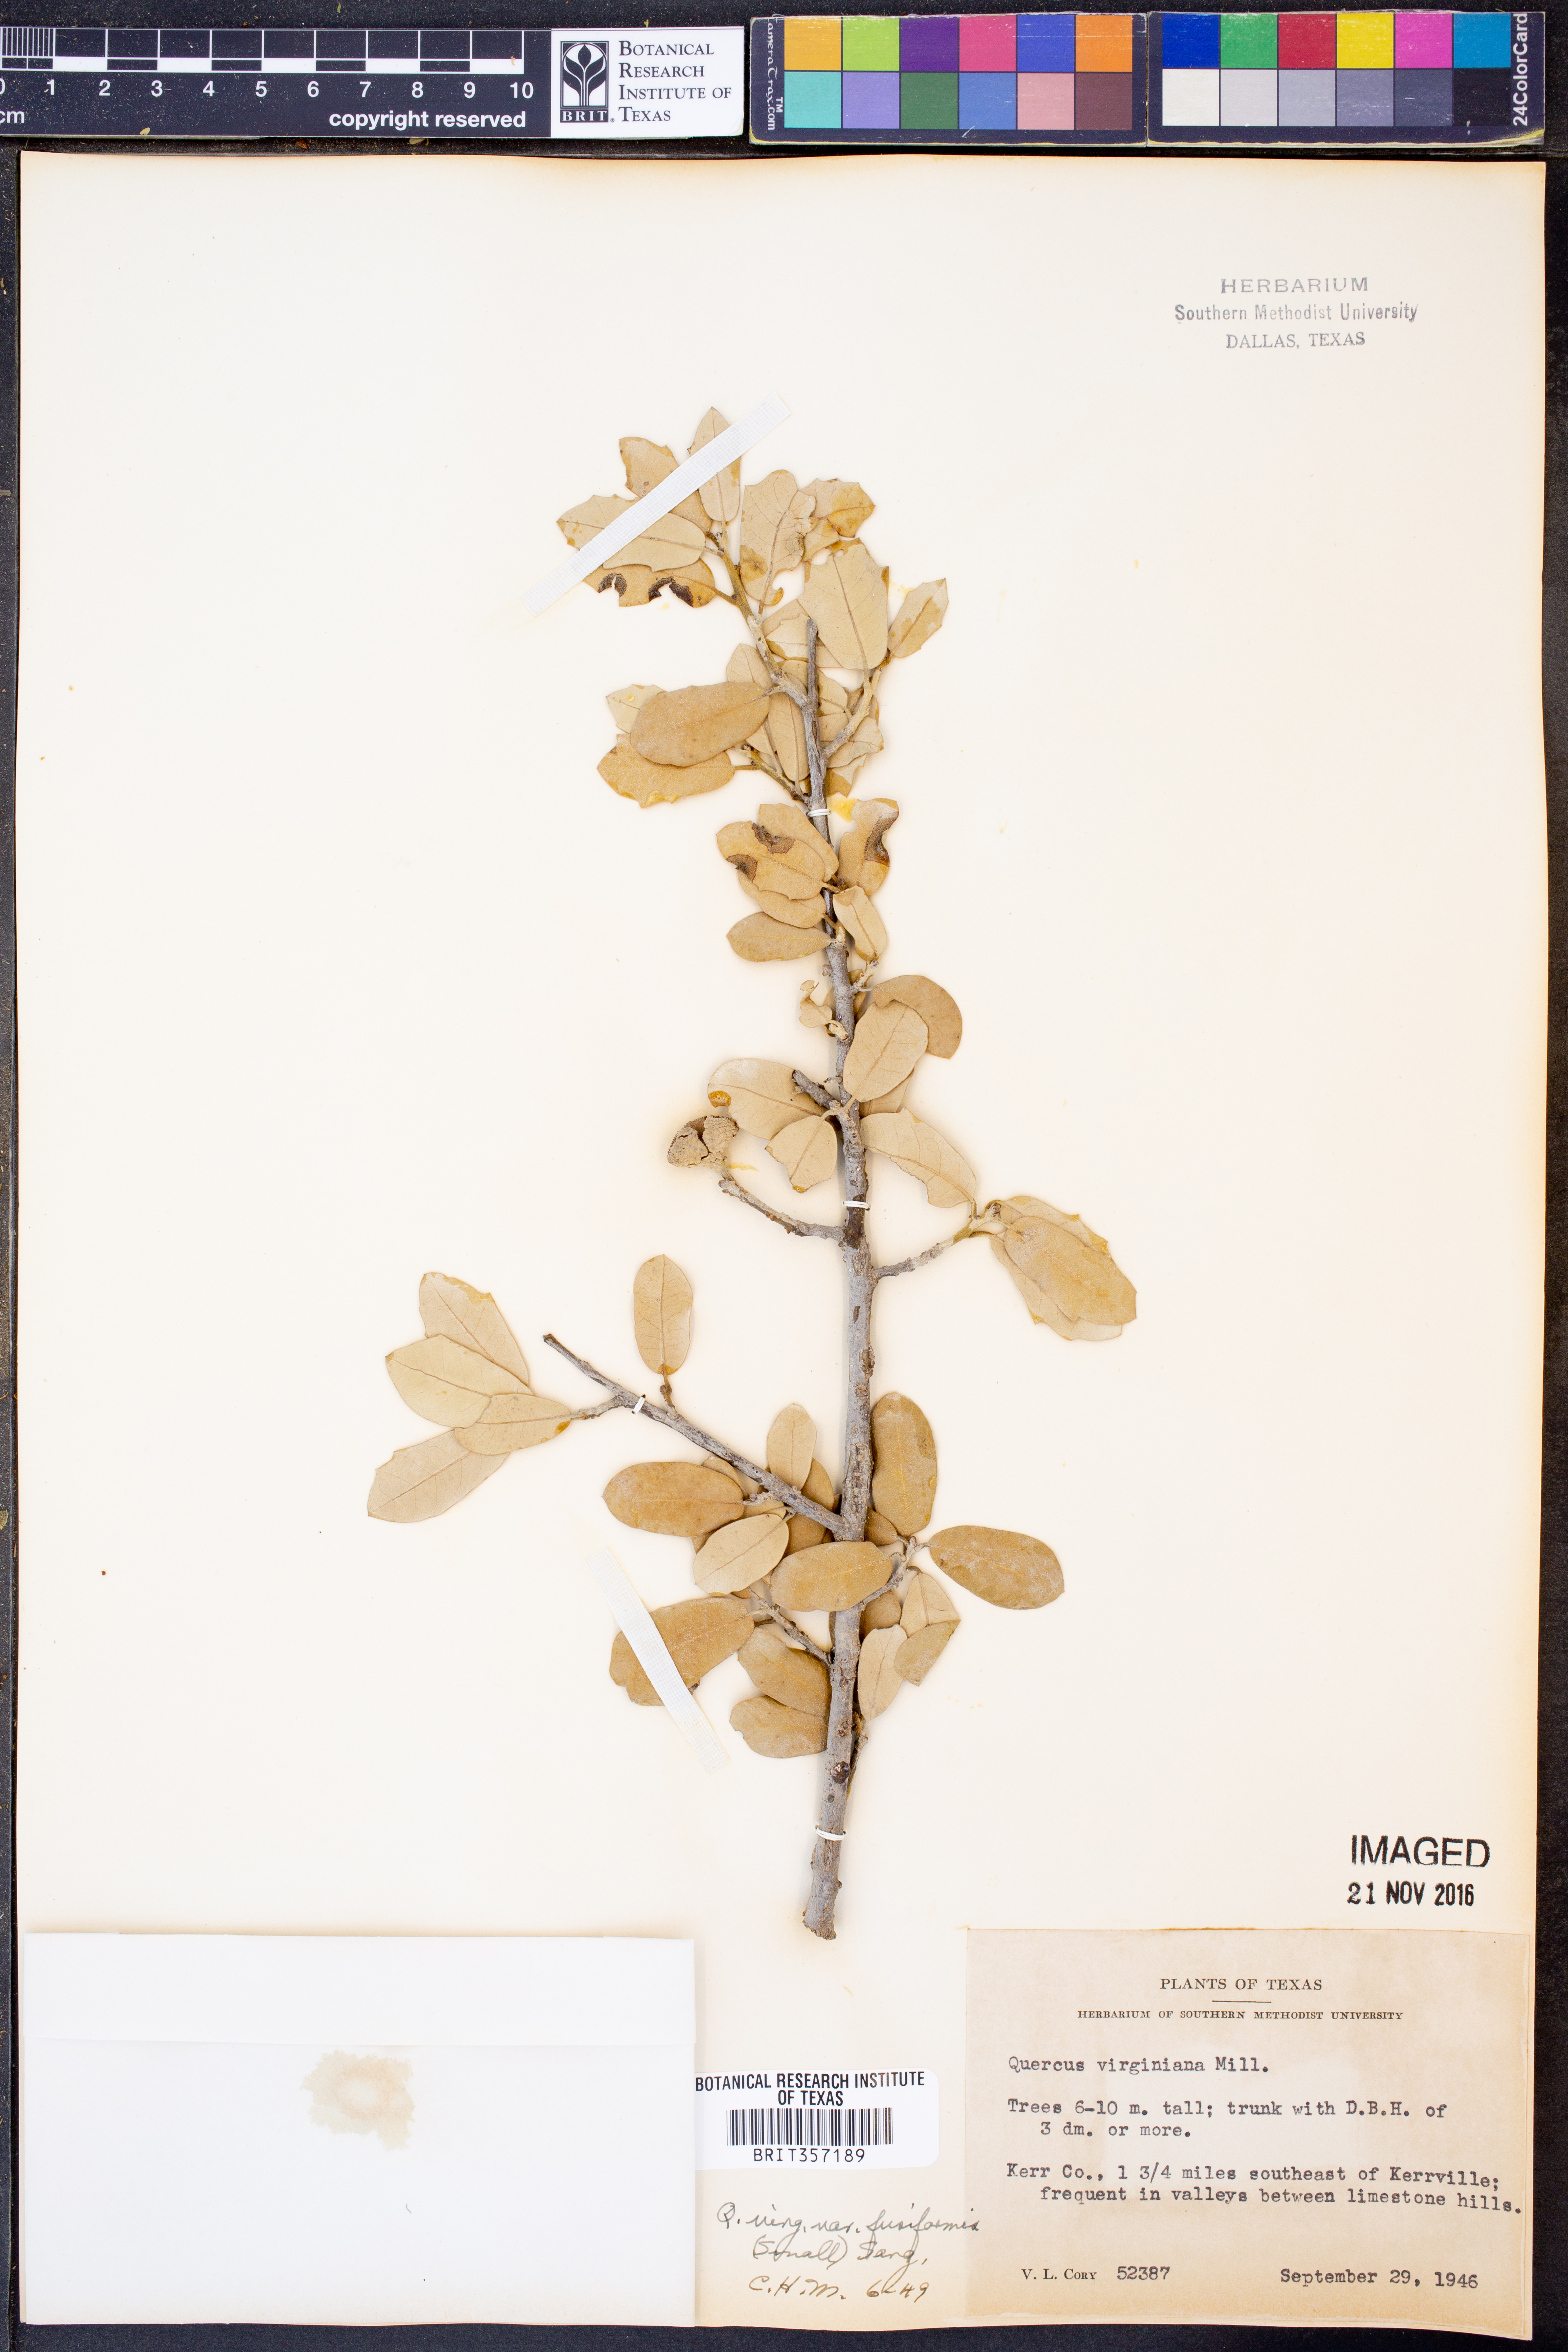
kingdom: Plantae
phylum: Tracheophyta
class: Magnoliopsida
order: Fagales
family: Fagaceae
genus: Quercus
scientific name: Quercus fusiformis
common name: Texas live oak
